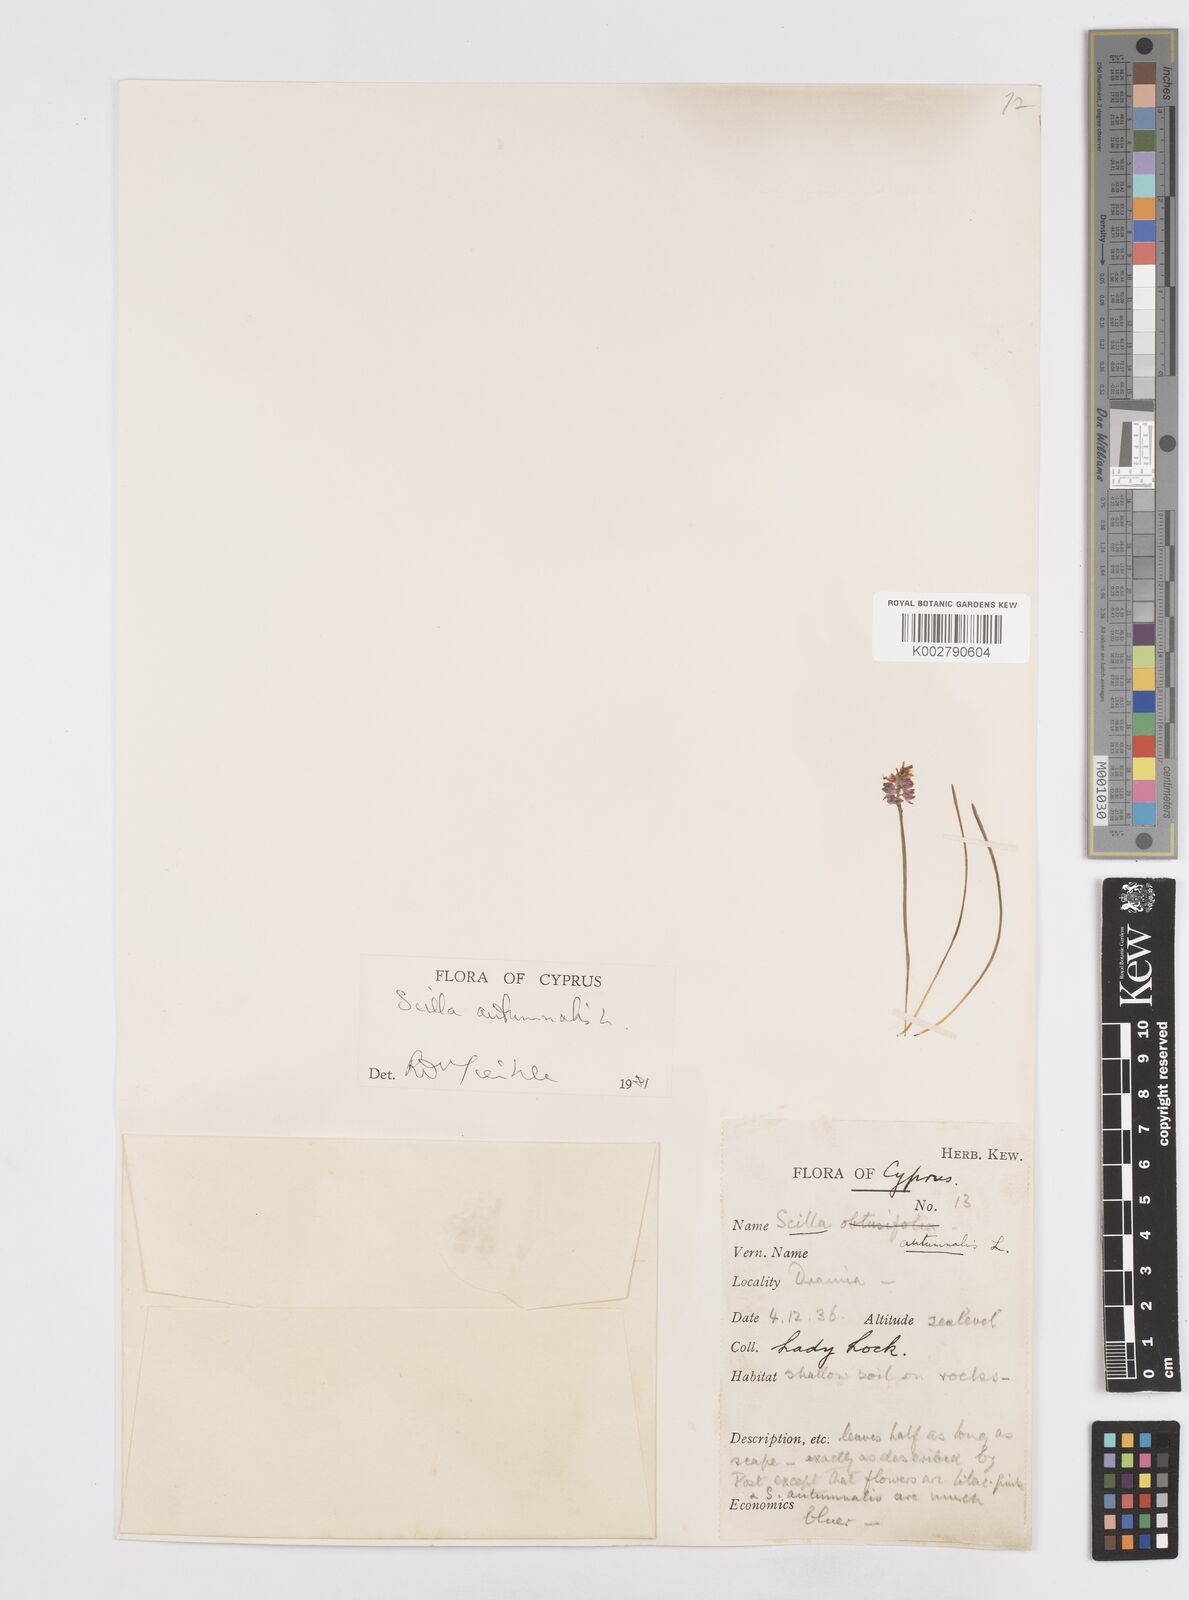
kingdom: Plantae
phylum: Tracheophyta
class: Liliopsida
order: Asparagales
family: Asparagaceae
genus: Prospero
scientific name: Prospero autumnale
